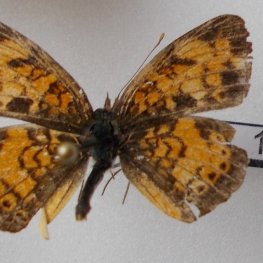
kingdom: Animalia
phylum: Arthropoda
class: Insecta
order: Lepidoptera
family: Nymphalidae
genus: Phyciodes
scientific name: Phyciodes tharos
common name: Northern Crescent
